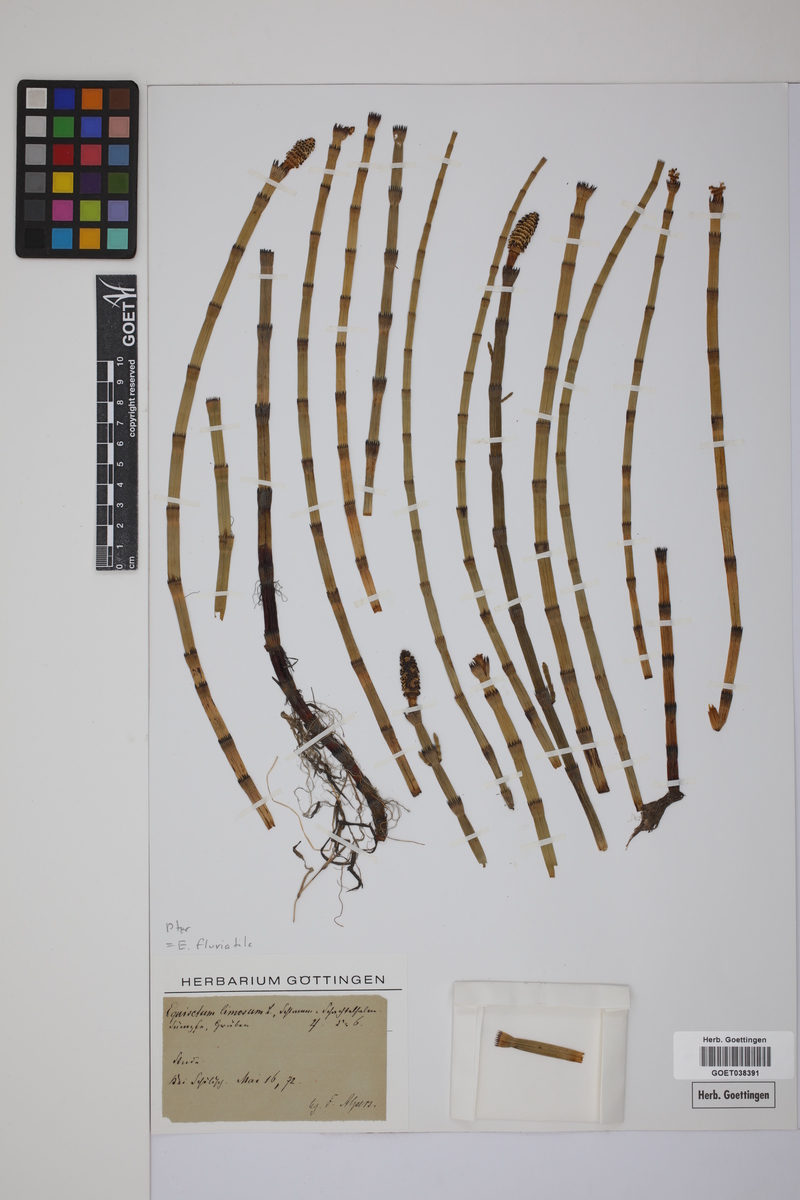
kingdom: Plantae
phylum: Tracheophyta
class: Polypodiopsida
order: Equisetales
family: Equisetaceae
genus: Equisetum
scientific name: Equisetum fluviatile
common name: Water horsetail
